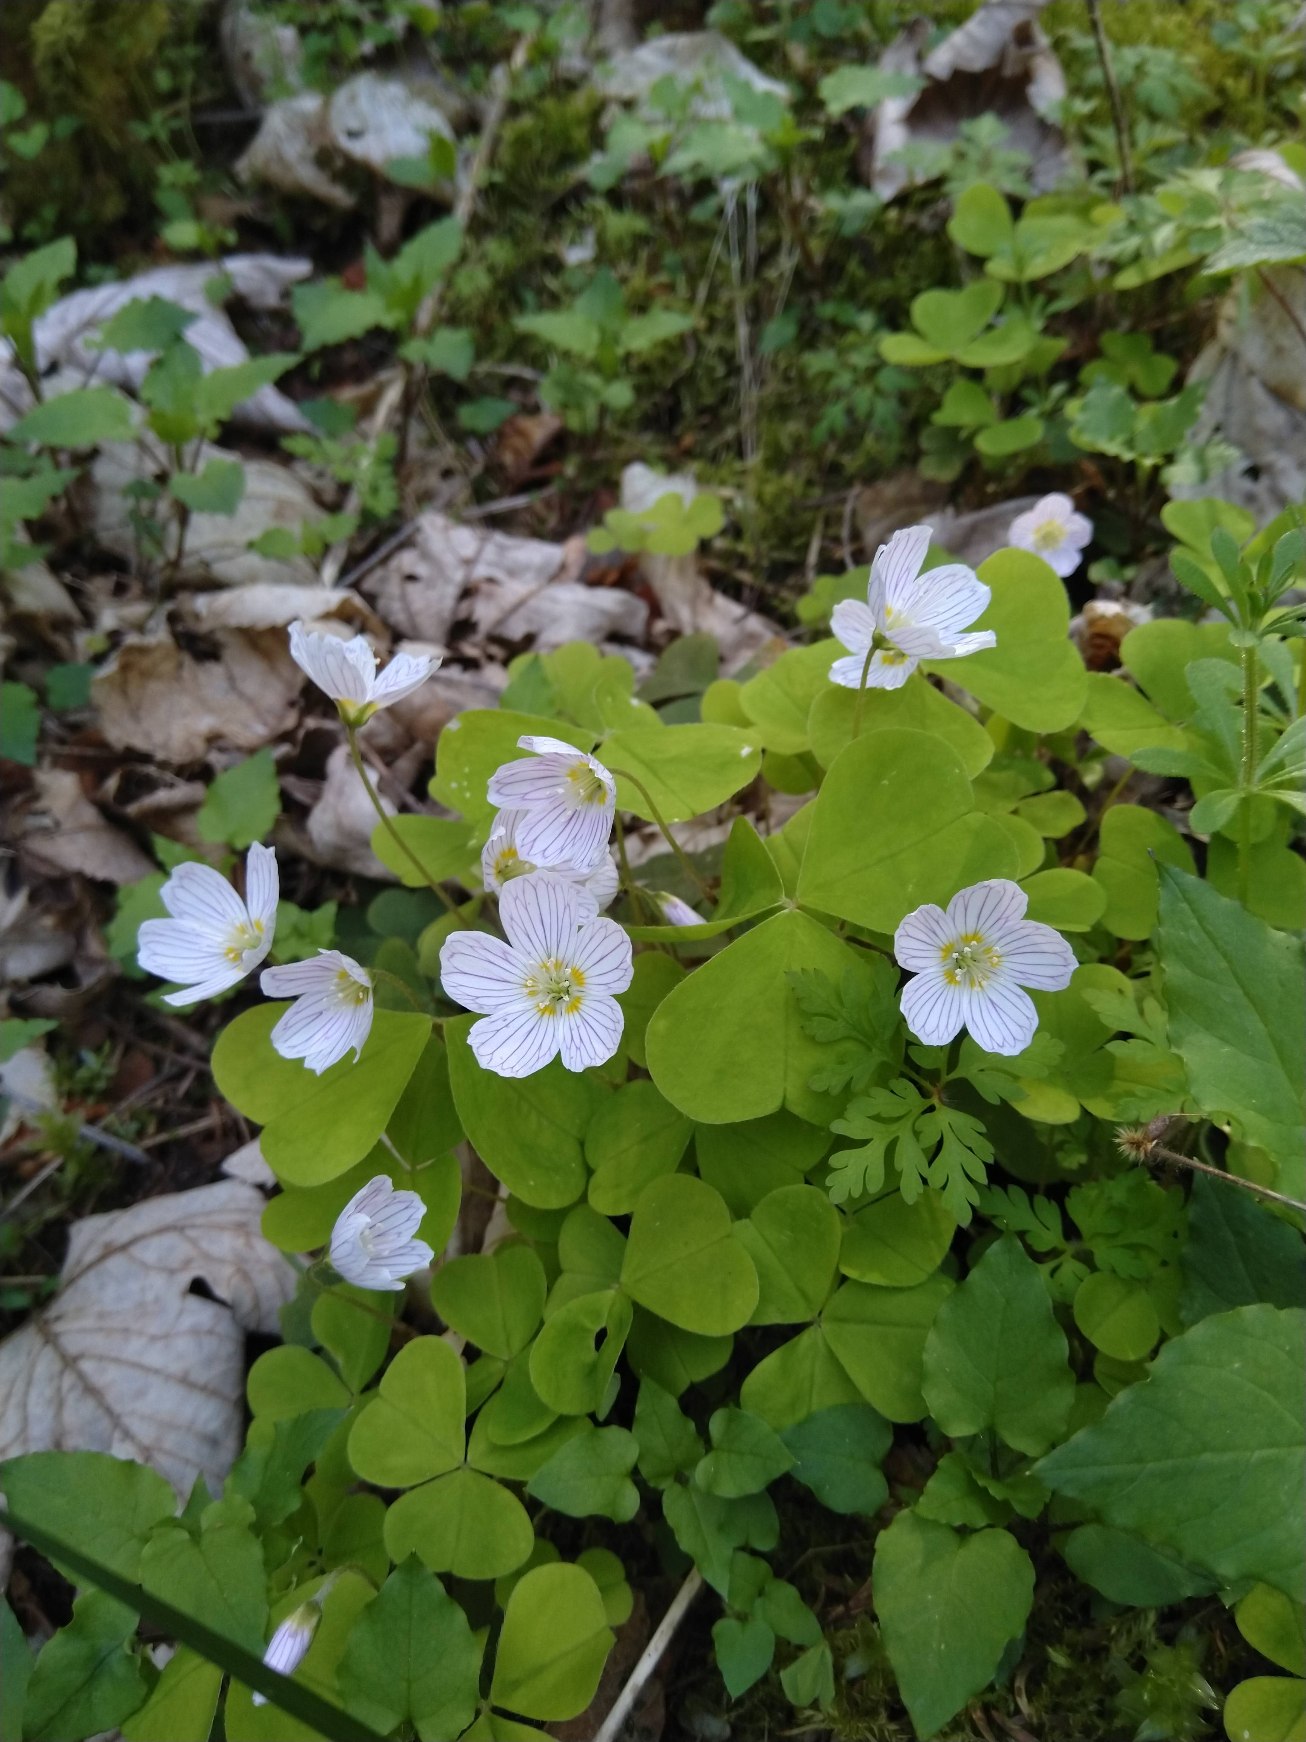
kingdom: Plantae
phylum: Tracheophyta
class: Magnoliopsida
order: Oxalidales
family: Oxalidaceae
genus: Oxalis
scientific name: Oxalis acetosella
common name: Skovsyre
